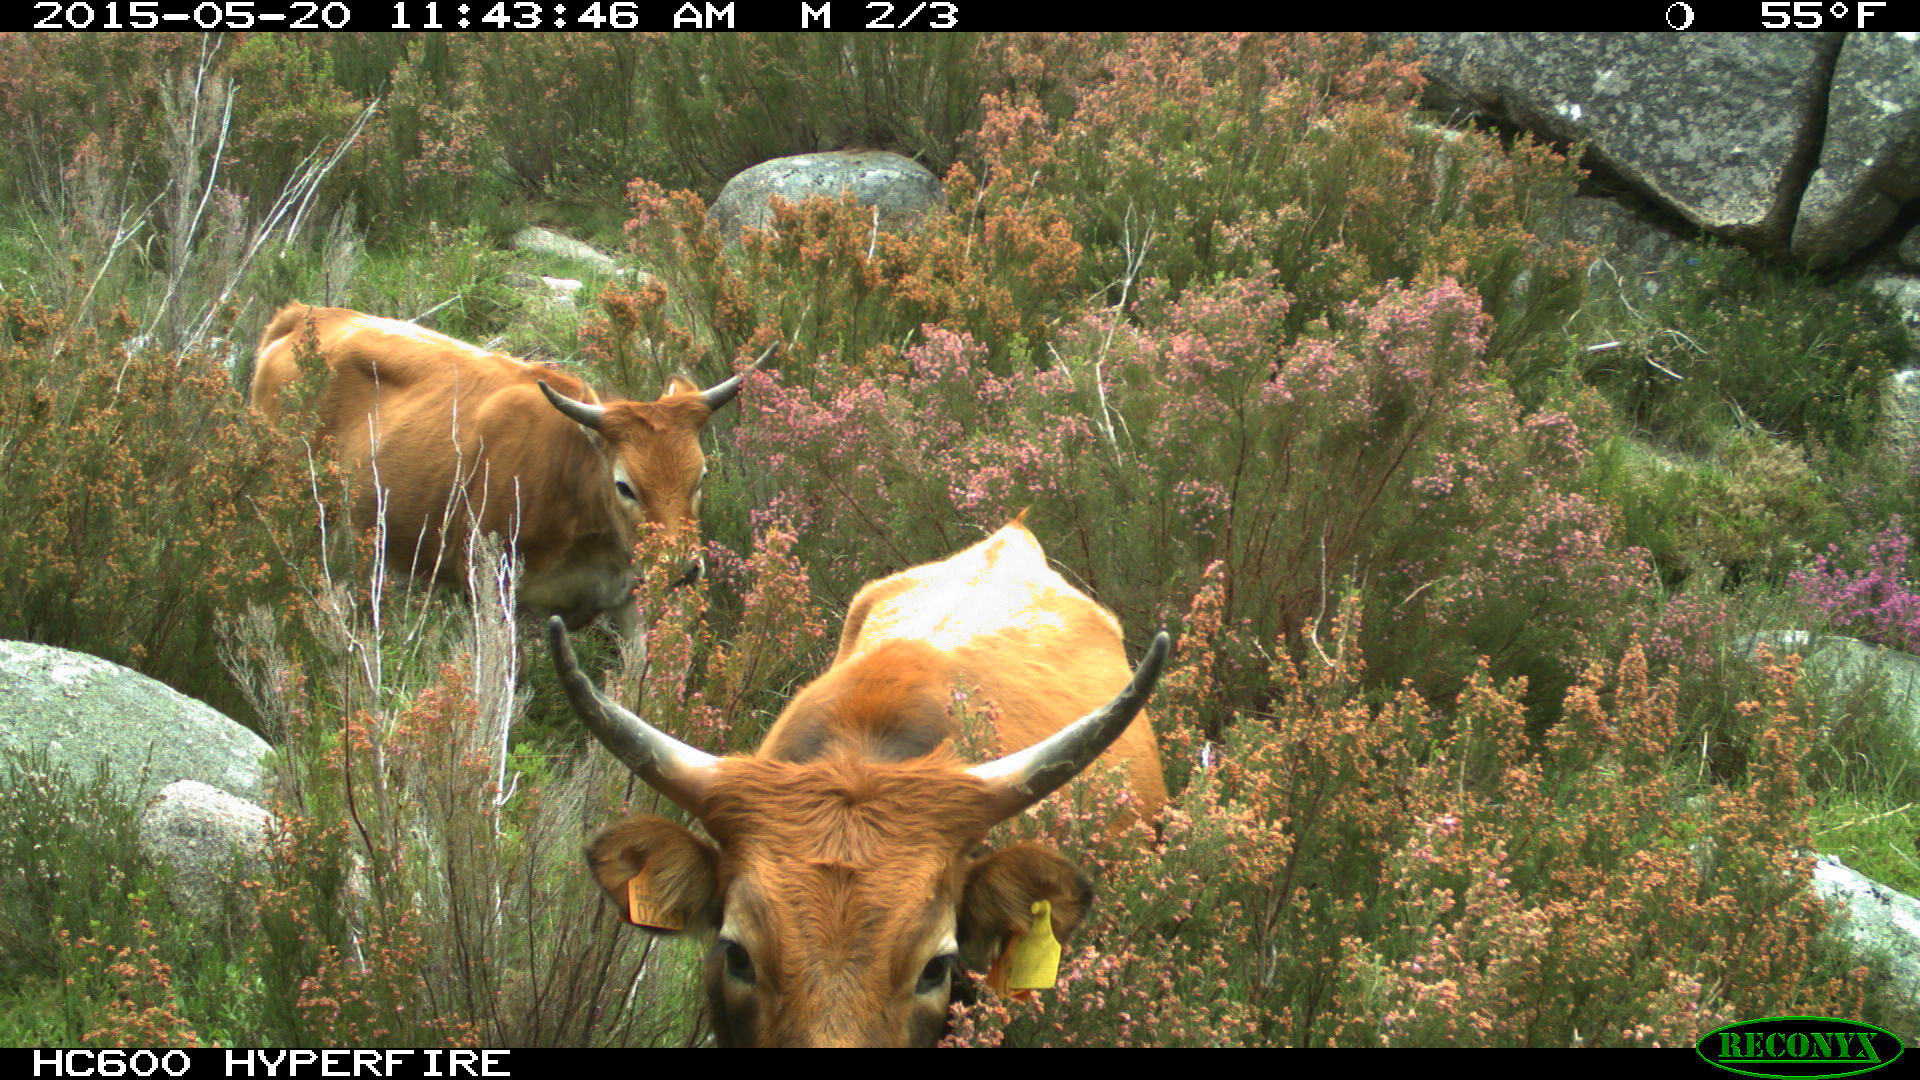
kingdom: Animalia
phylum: Chordata
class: Mammalia
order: Artiodactyla
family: Bovidae
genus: Bos
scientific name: Bos taurus
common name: Domesticated cattle
